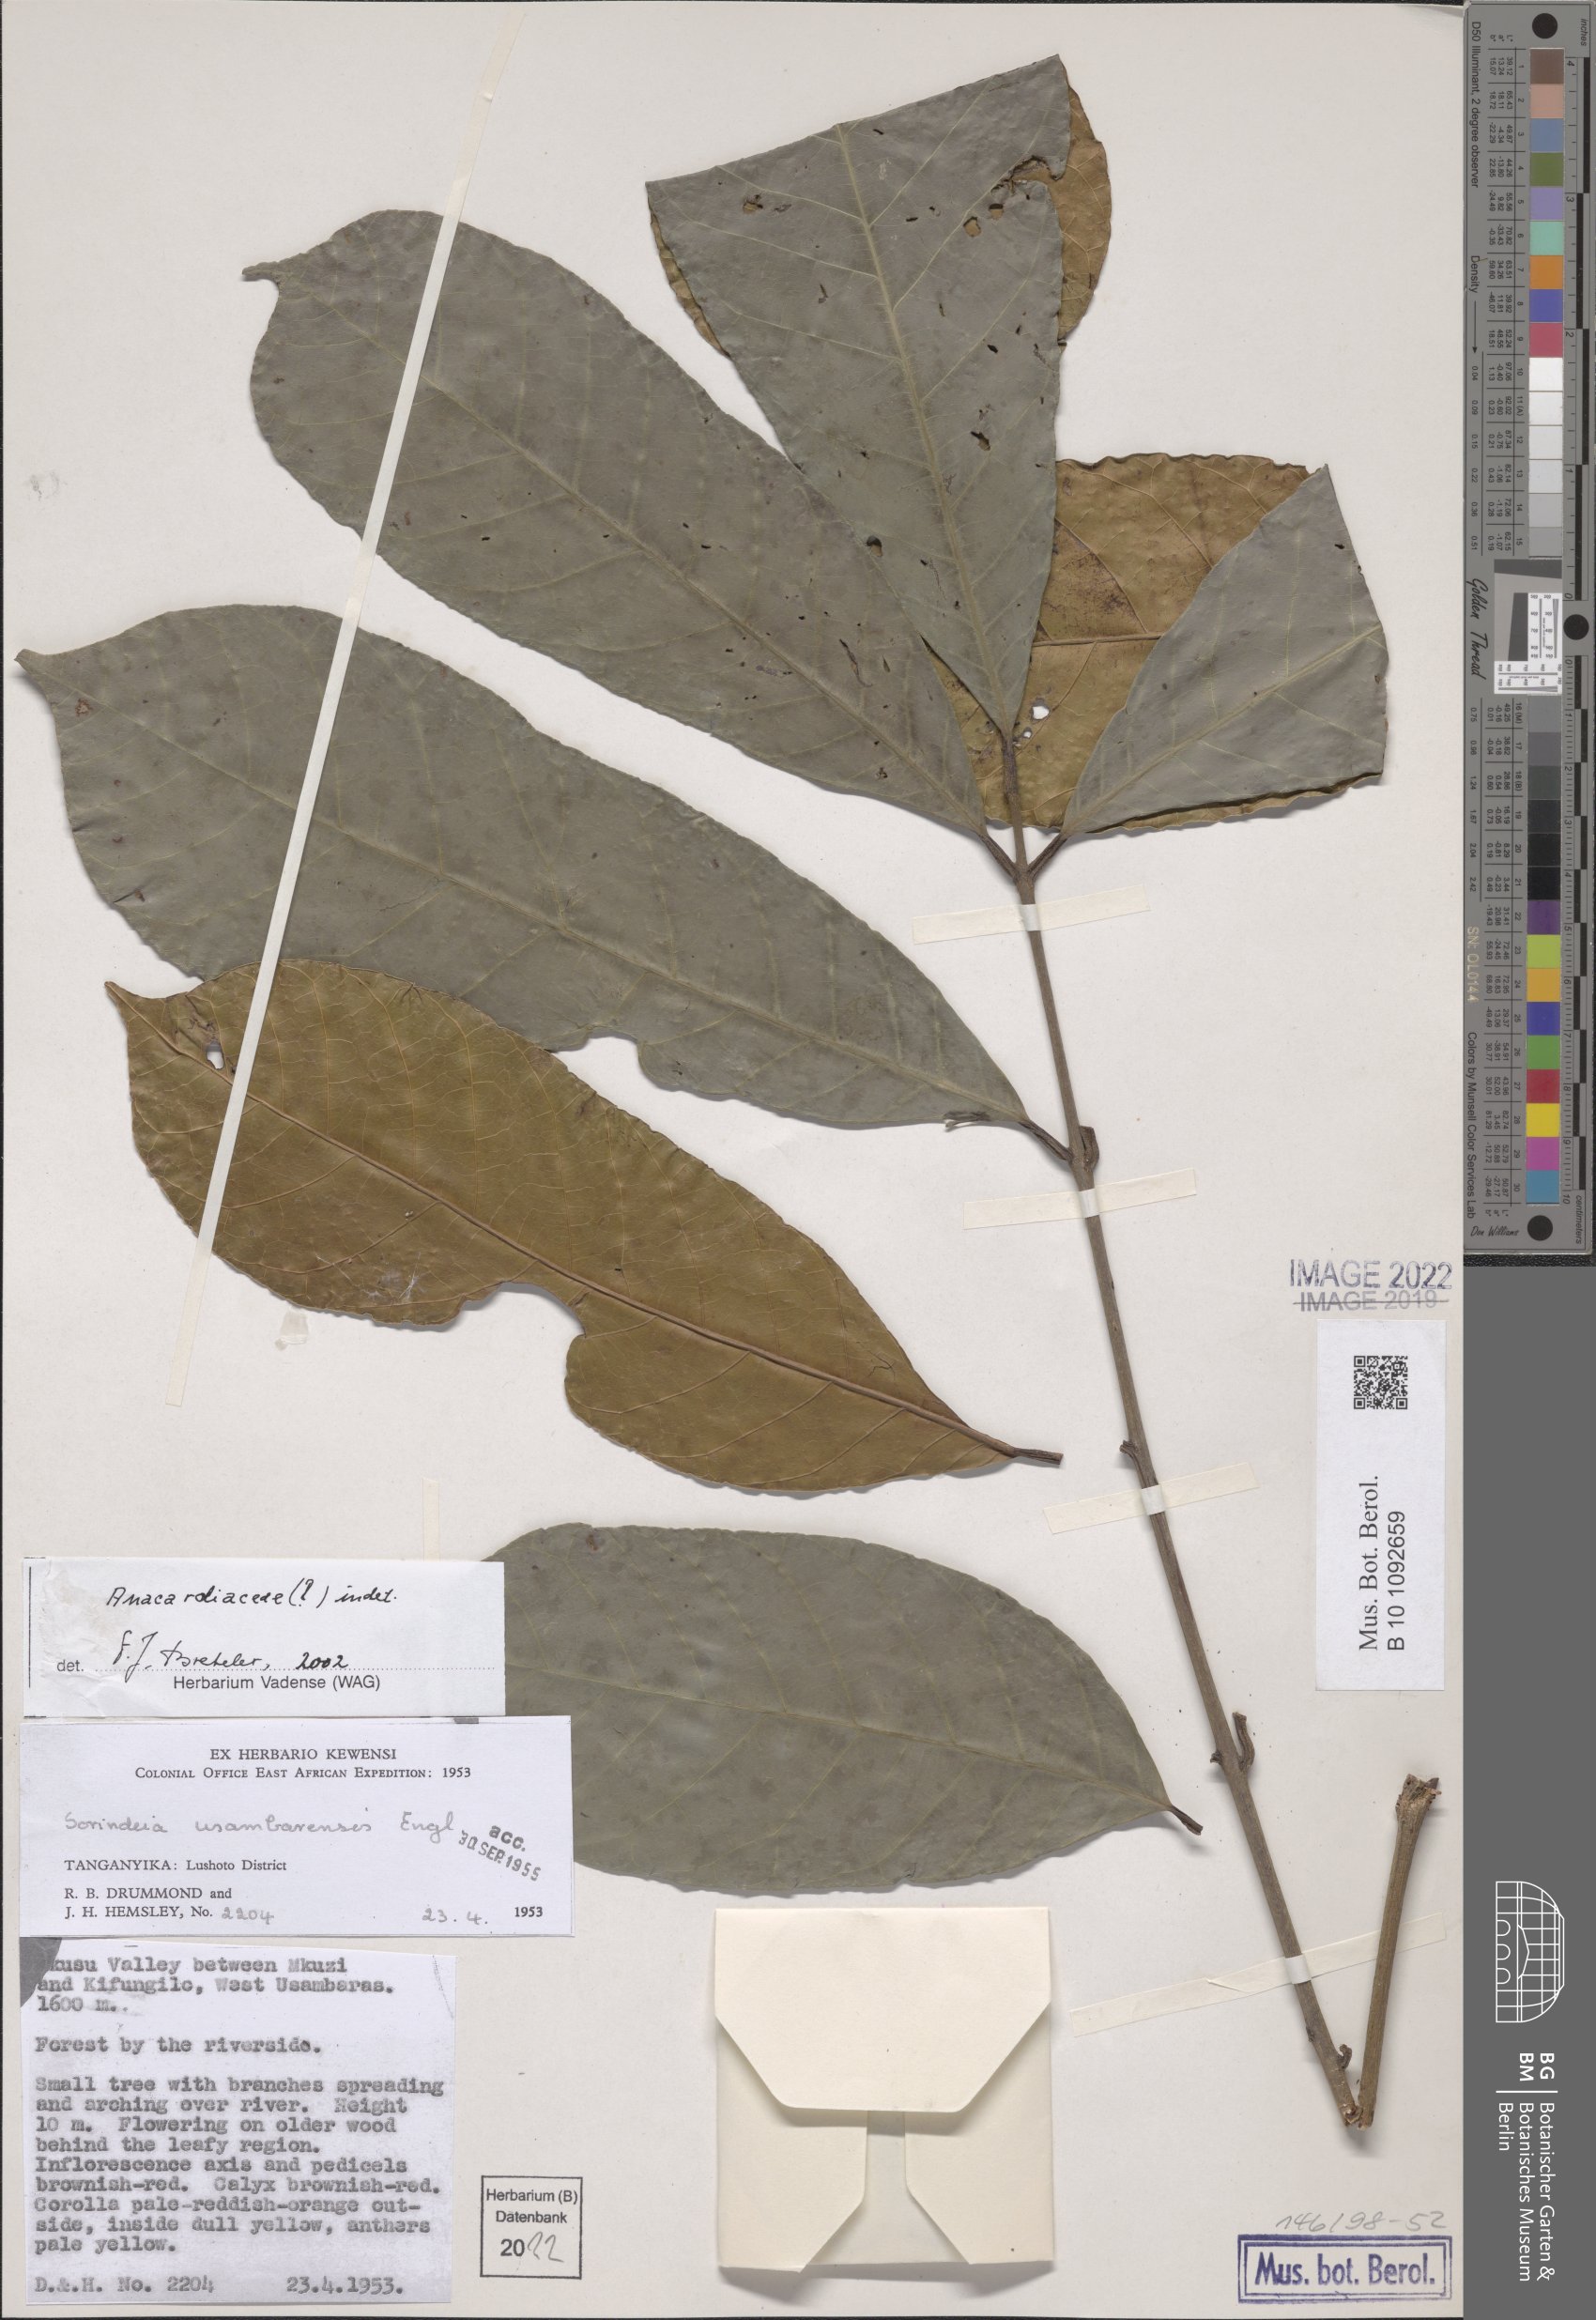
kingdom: Plantae
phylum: Tracheophyta
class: Magnoliopsida
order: Sapindales
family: Anacardiaceae
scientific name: Anacardiaceae
